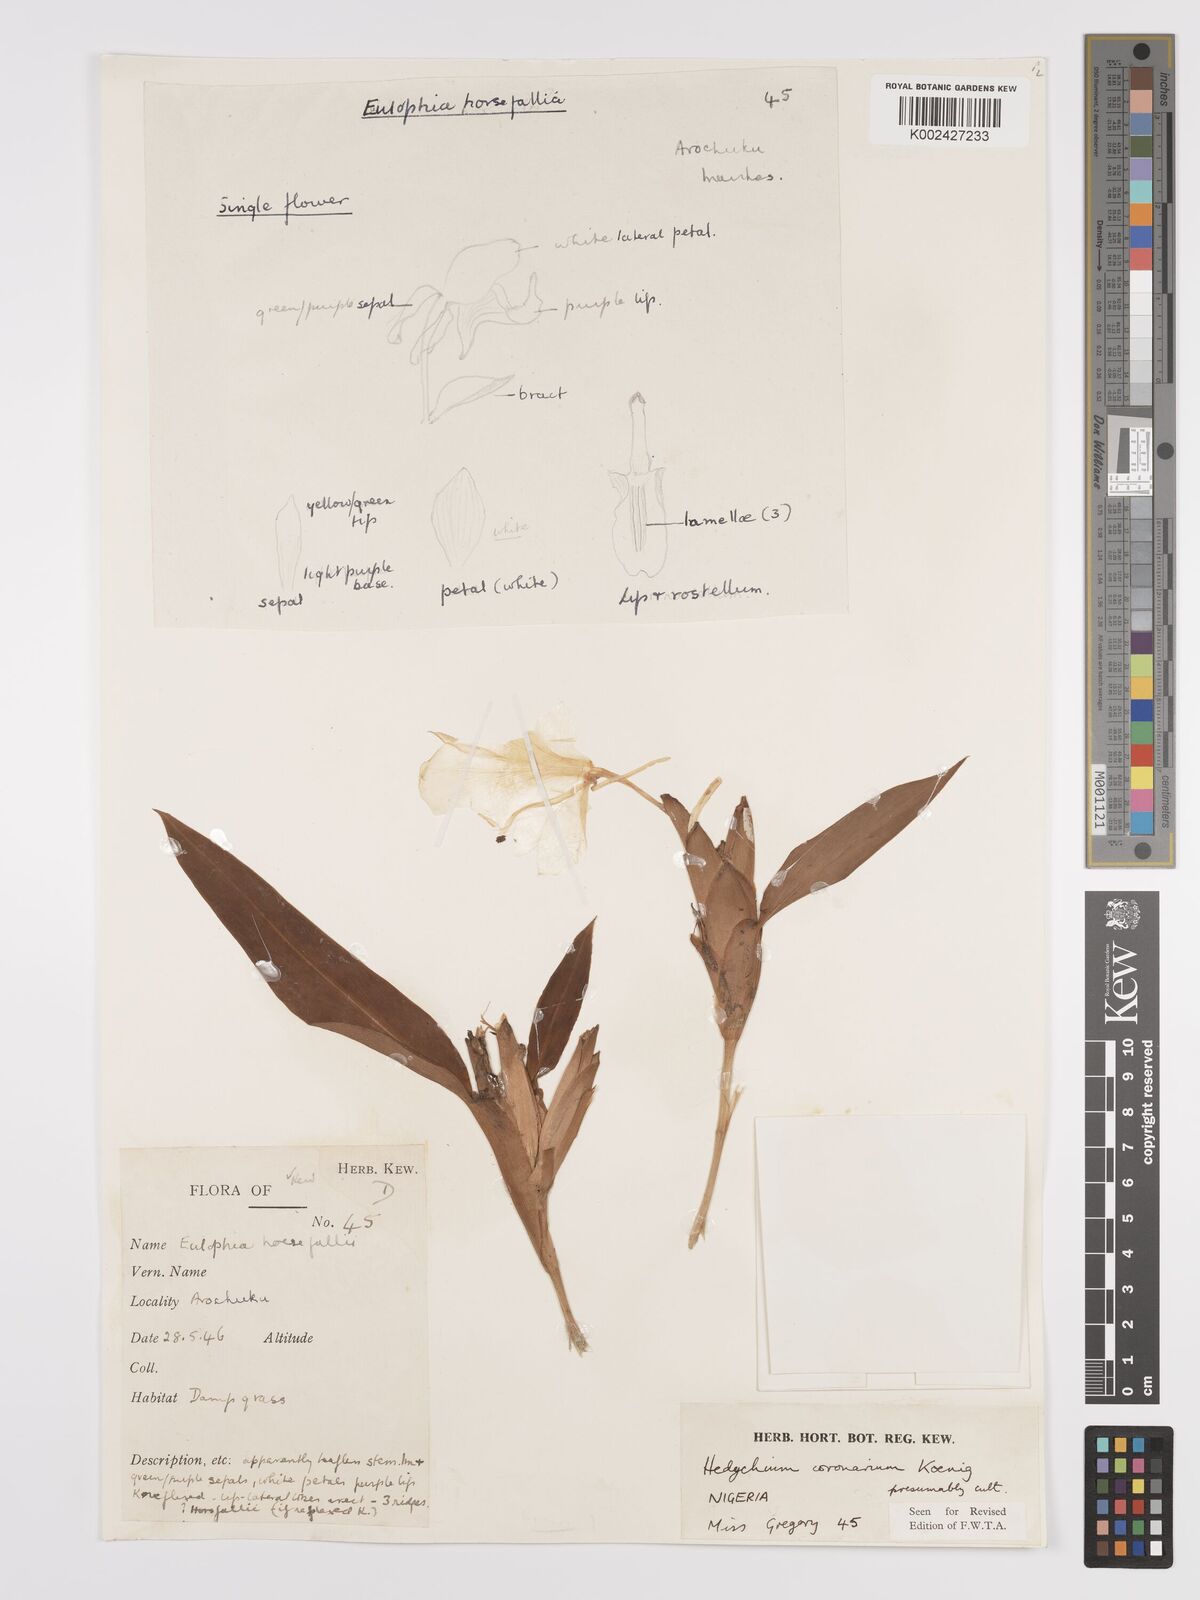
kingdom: Plantae
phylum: Tracheophyta
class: Liliopsida
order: Zingiberales
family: Zingiberaceae
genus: Hedychium
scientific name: Hedychium coronarium
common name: White garland-lily
